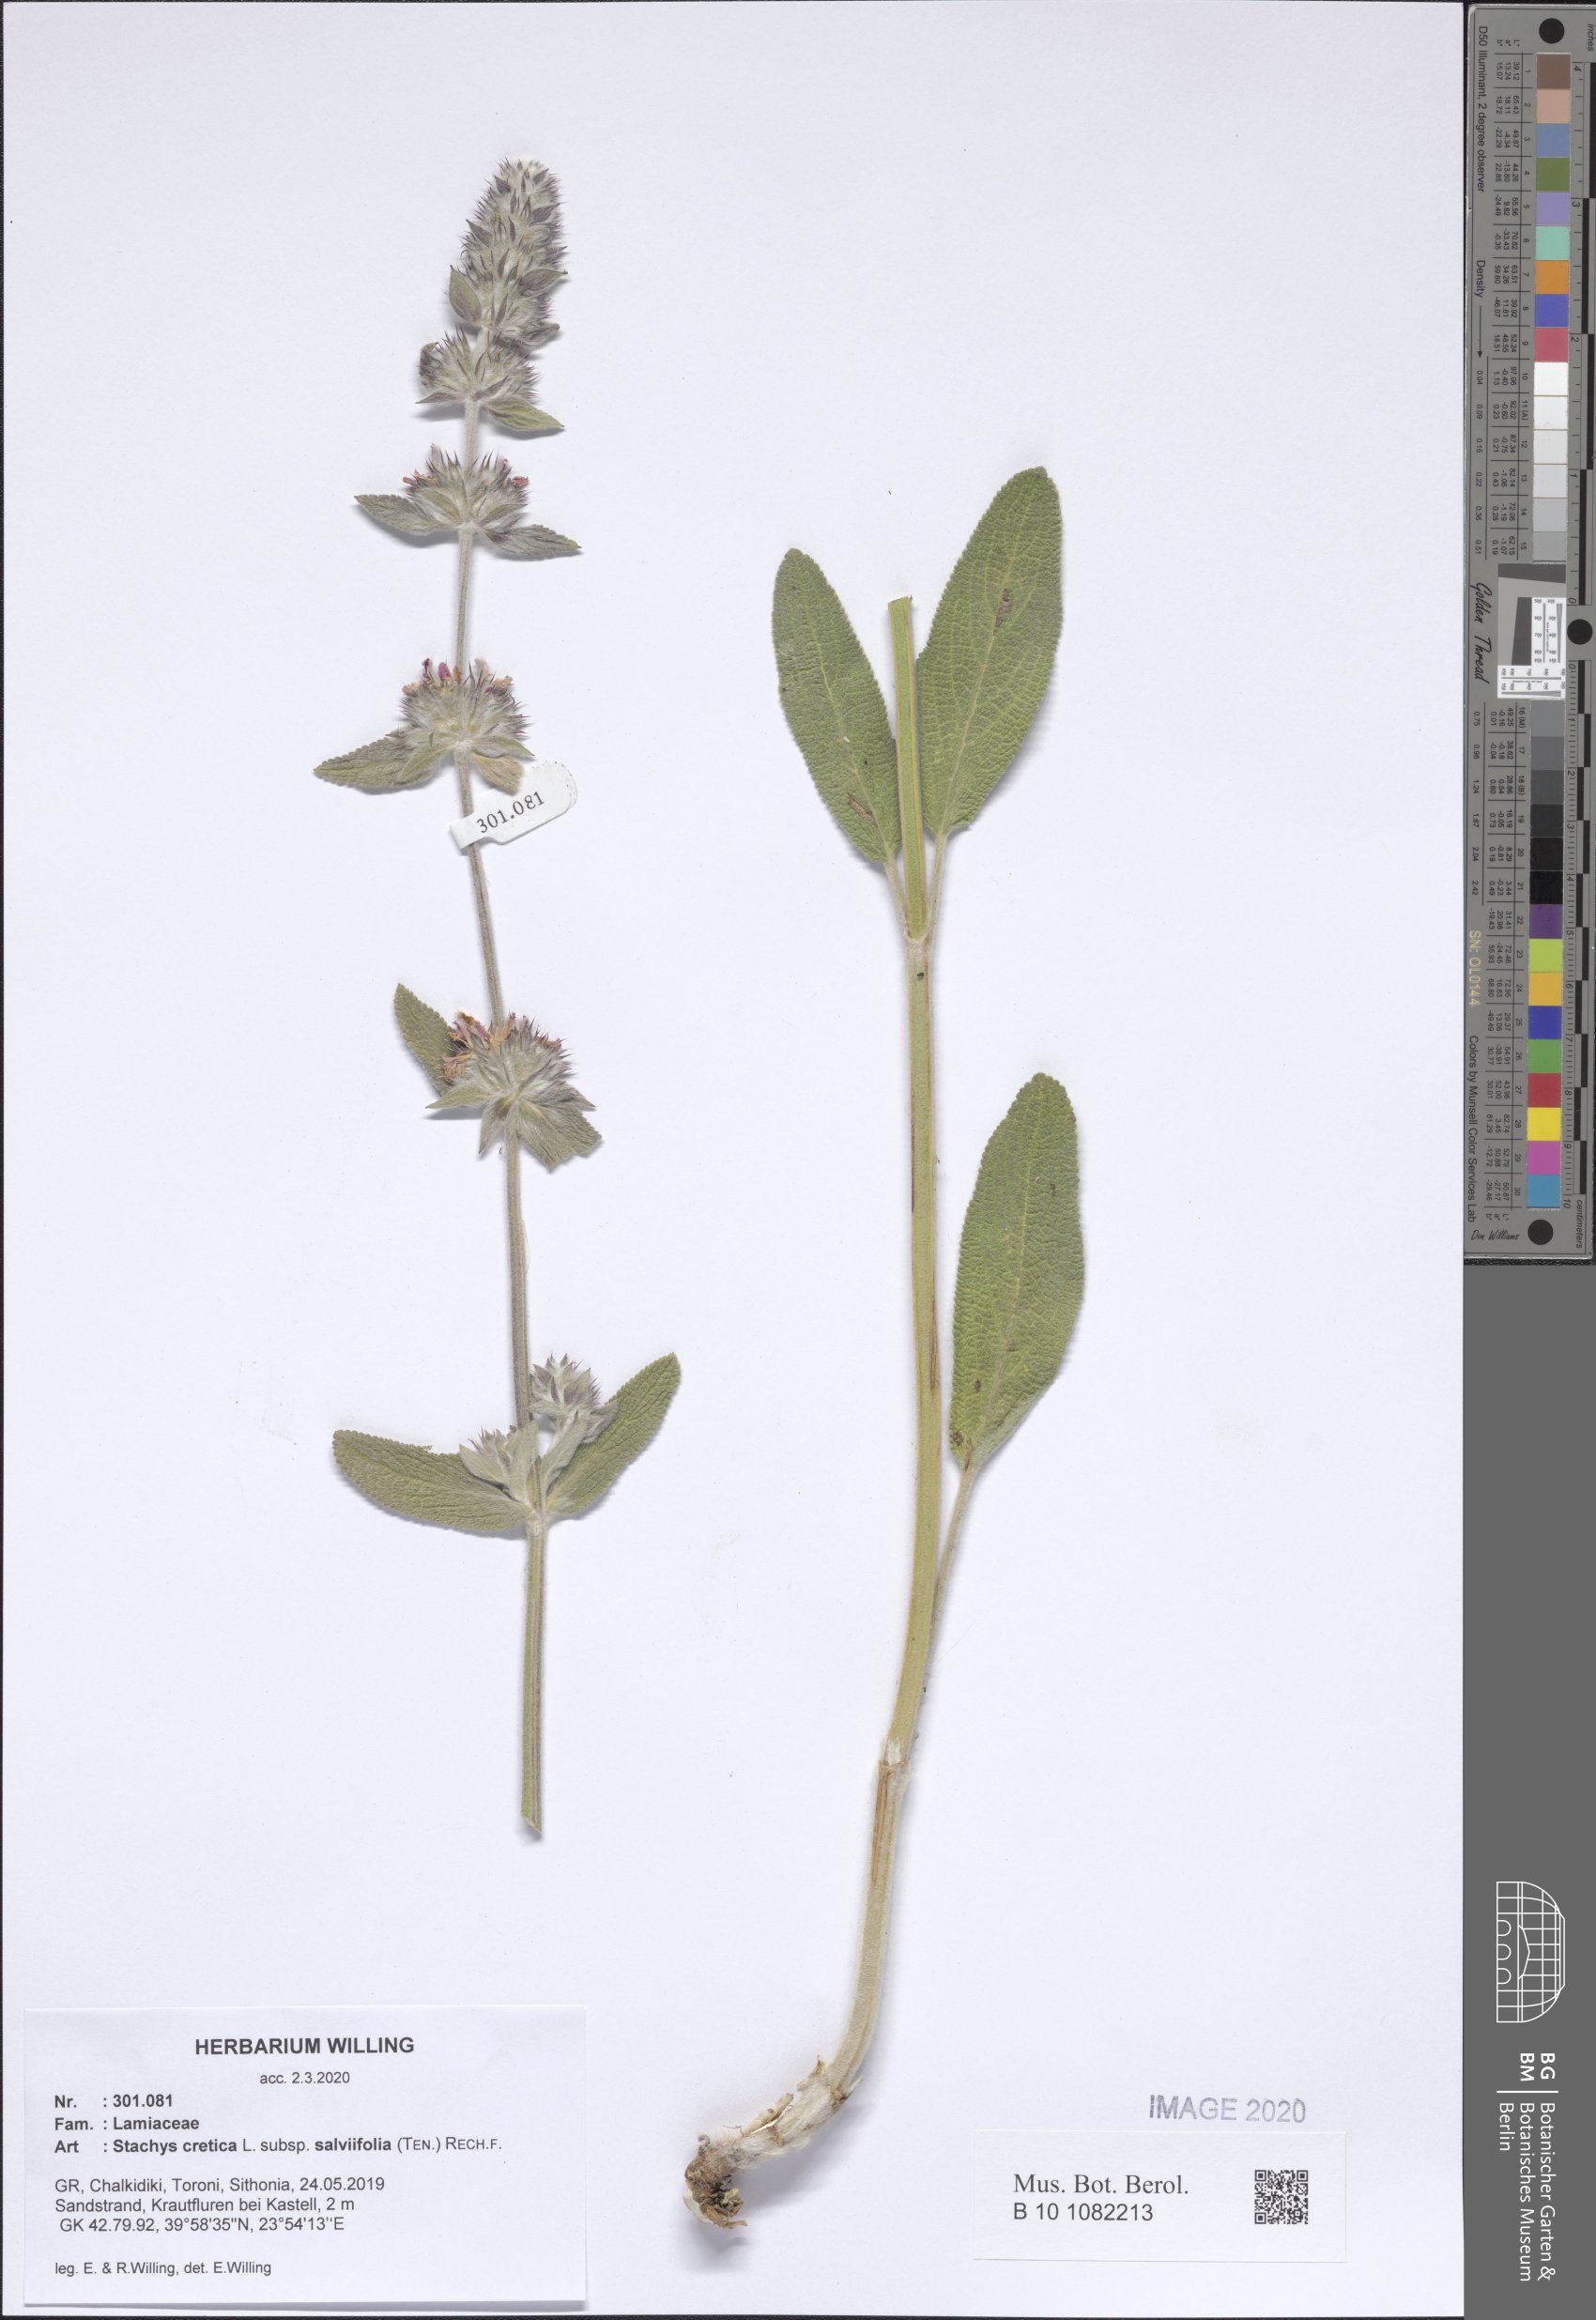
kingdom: Plantae
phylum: Tracheophyta
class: Magnoliopsida
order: Lamiales
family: Lamiaceae
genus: Stachys
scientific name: Stachys cretica
